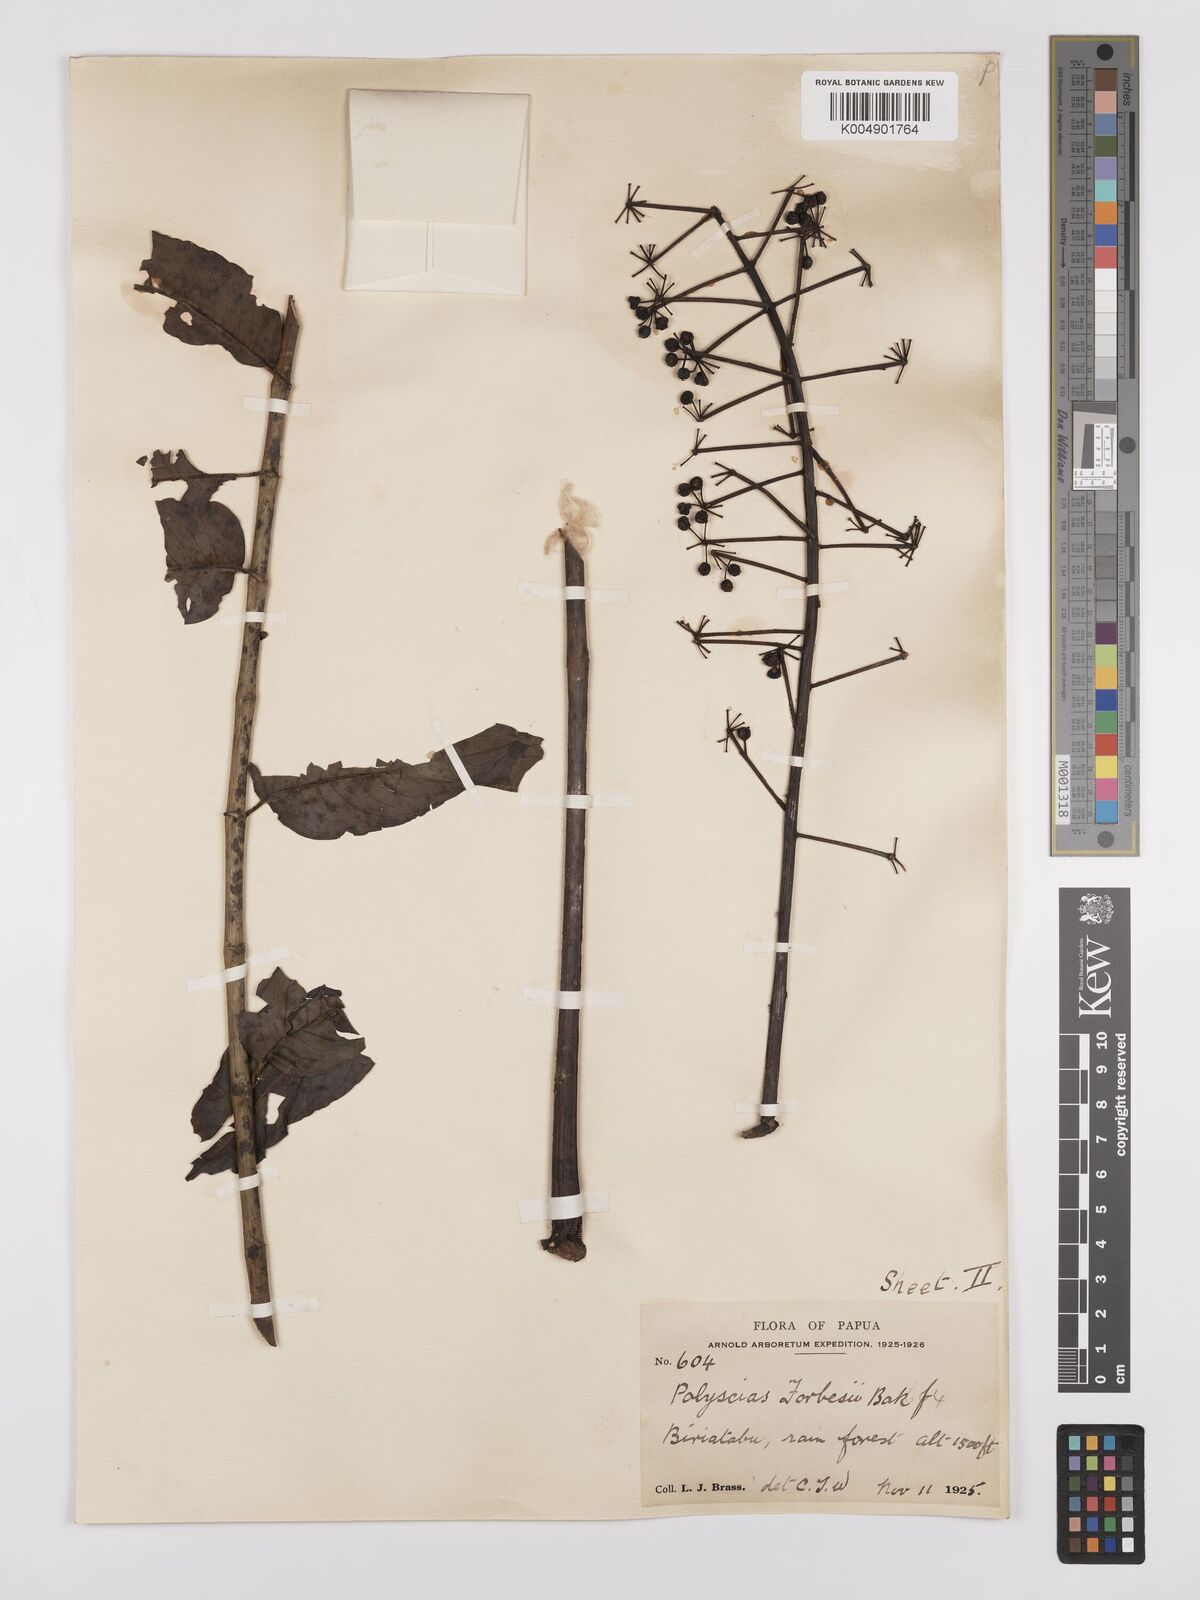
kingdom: Plantae
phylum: Tracheophyta
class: Magnoliopsida
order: Apiales
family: Araliaceae
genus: Polyscias
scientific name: Polyscias ledermannii
